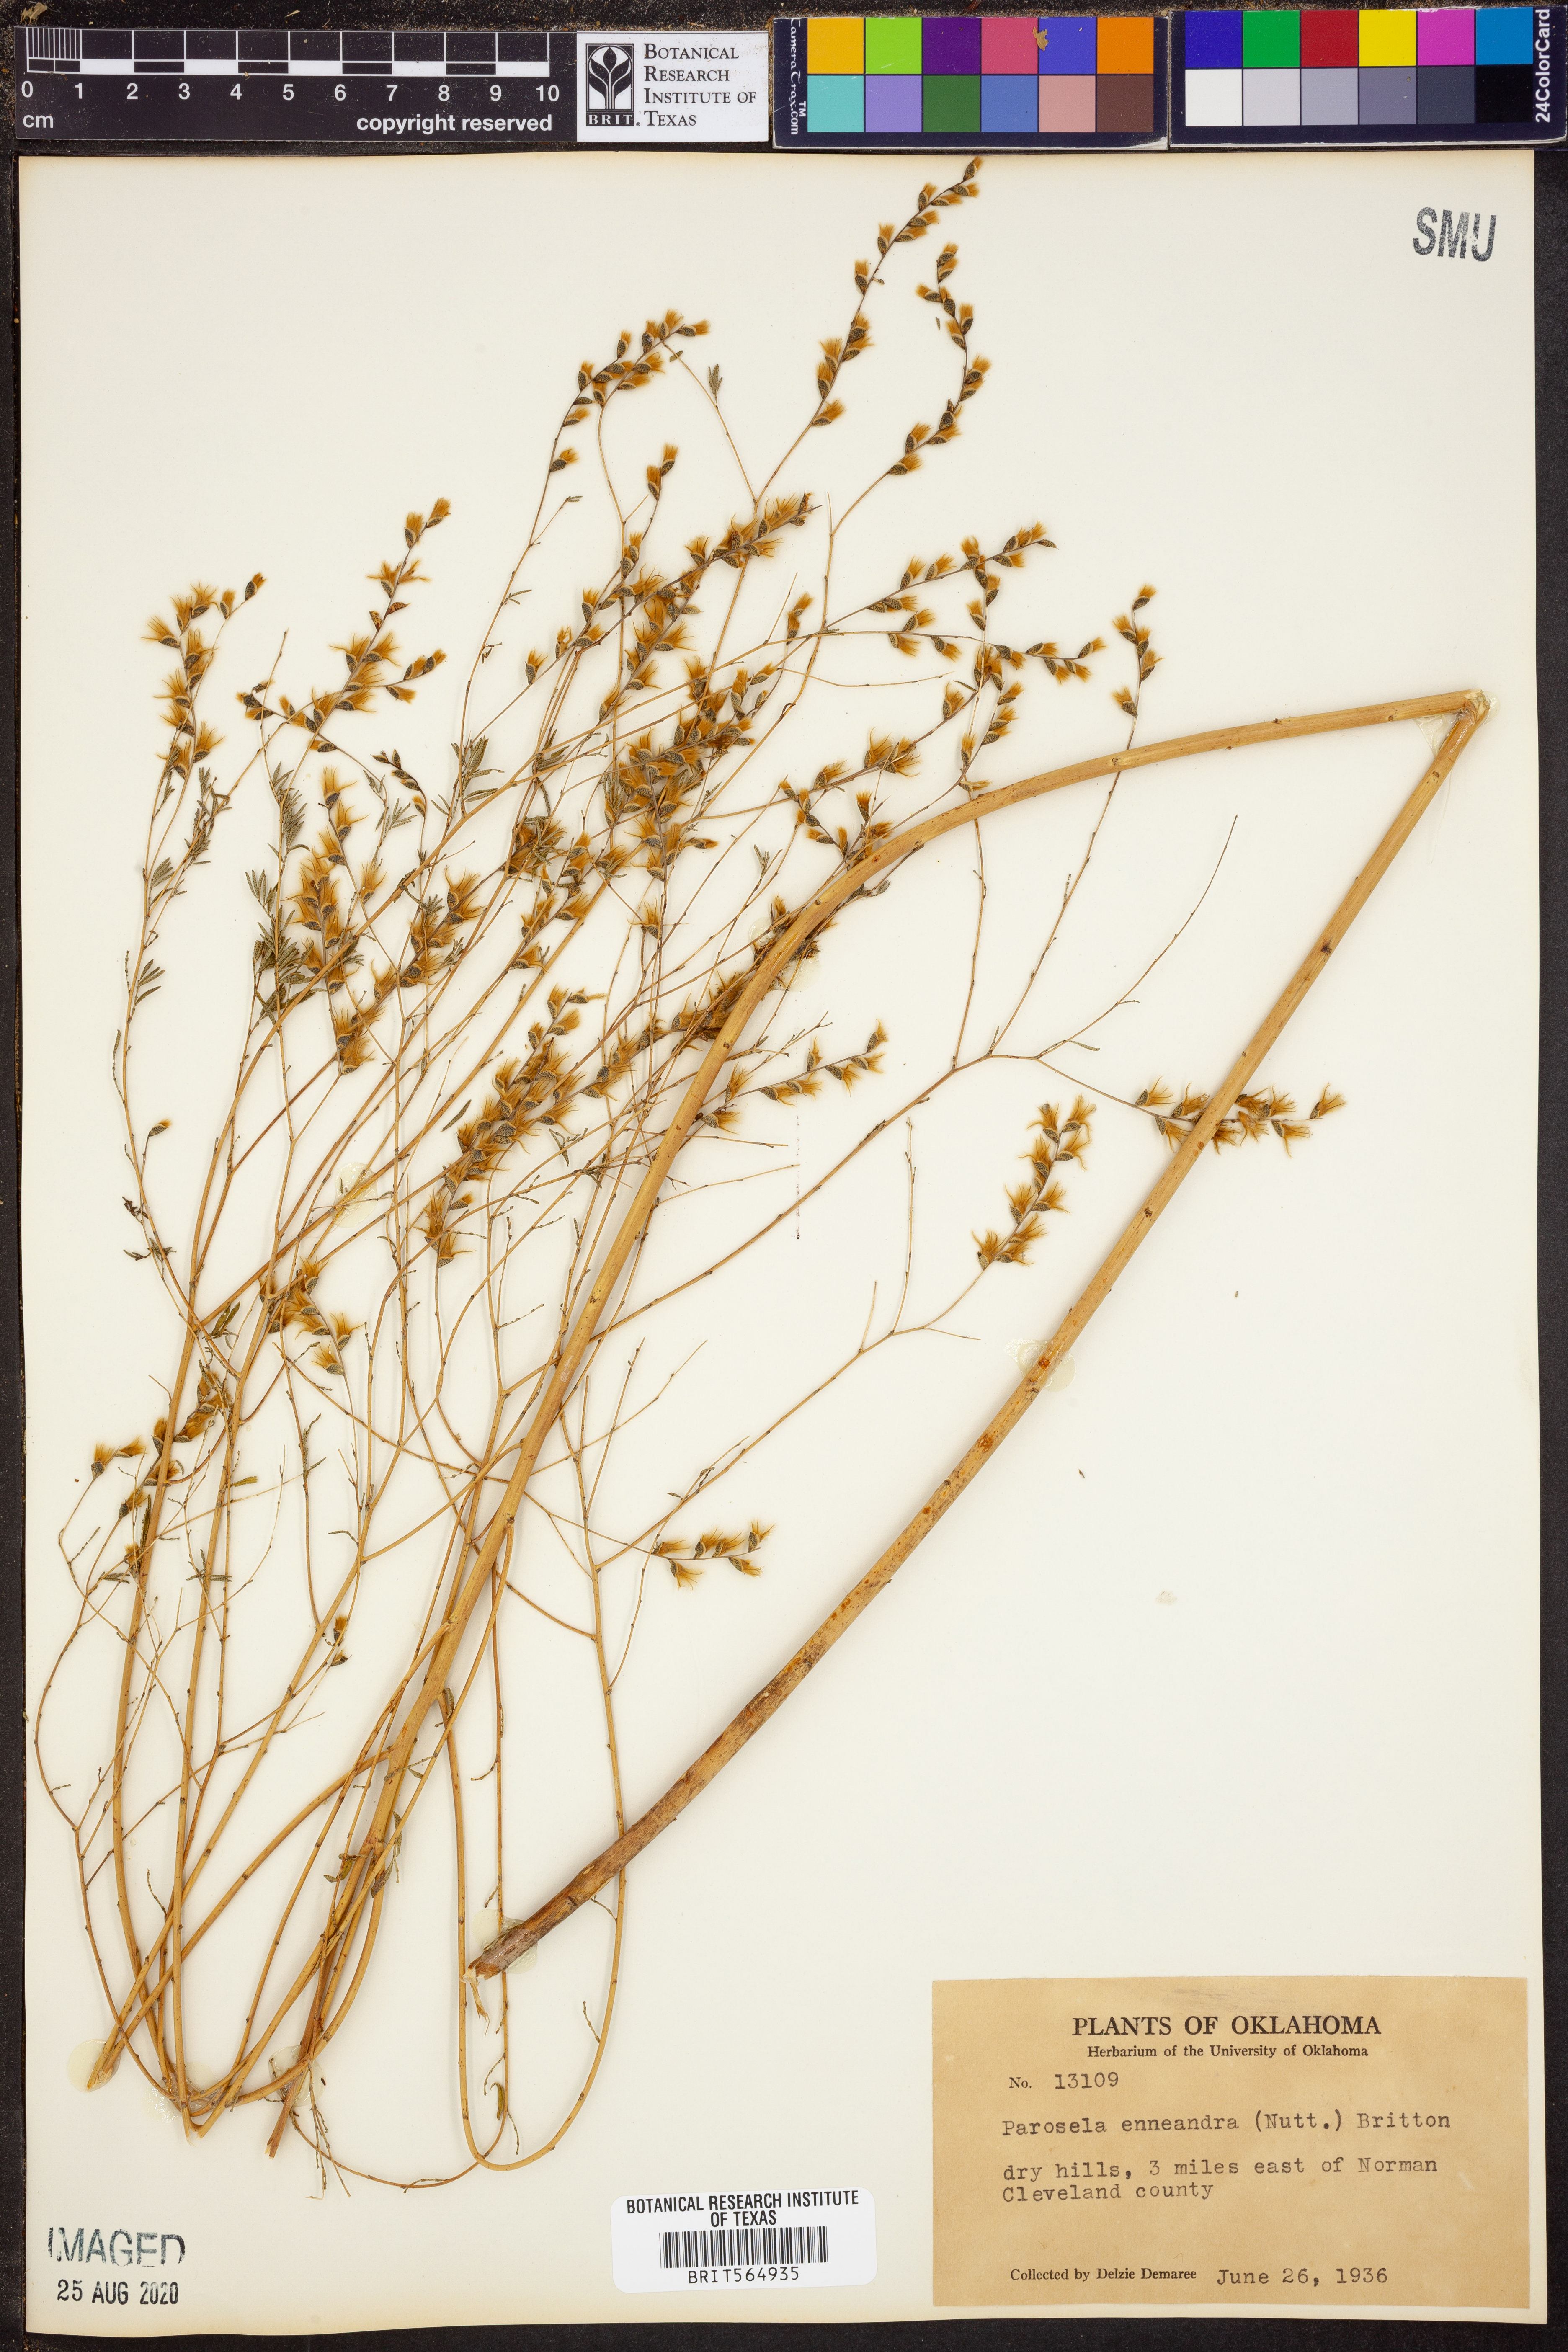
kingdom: Plantae
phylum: Tracheophyta
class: Magnoliopsida
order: Fabales
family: Fabaceae
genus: Dalea
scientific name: Dalea enneandra
